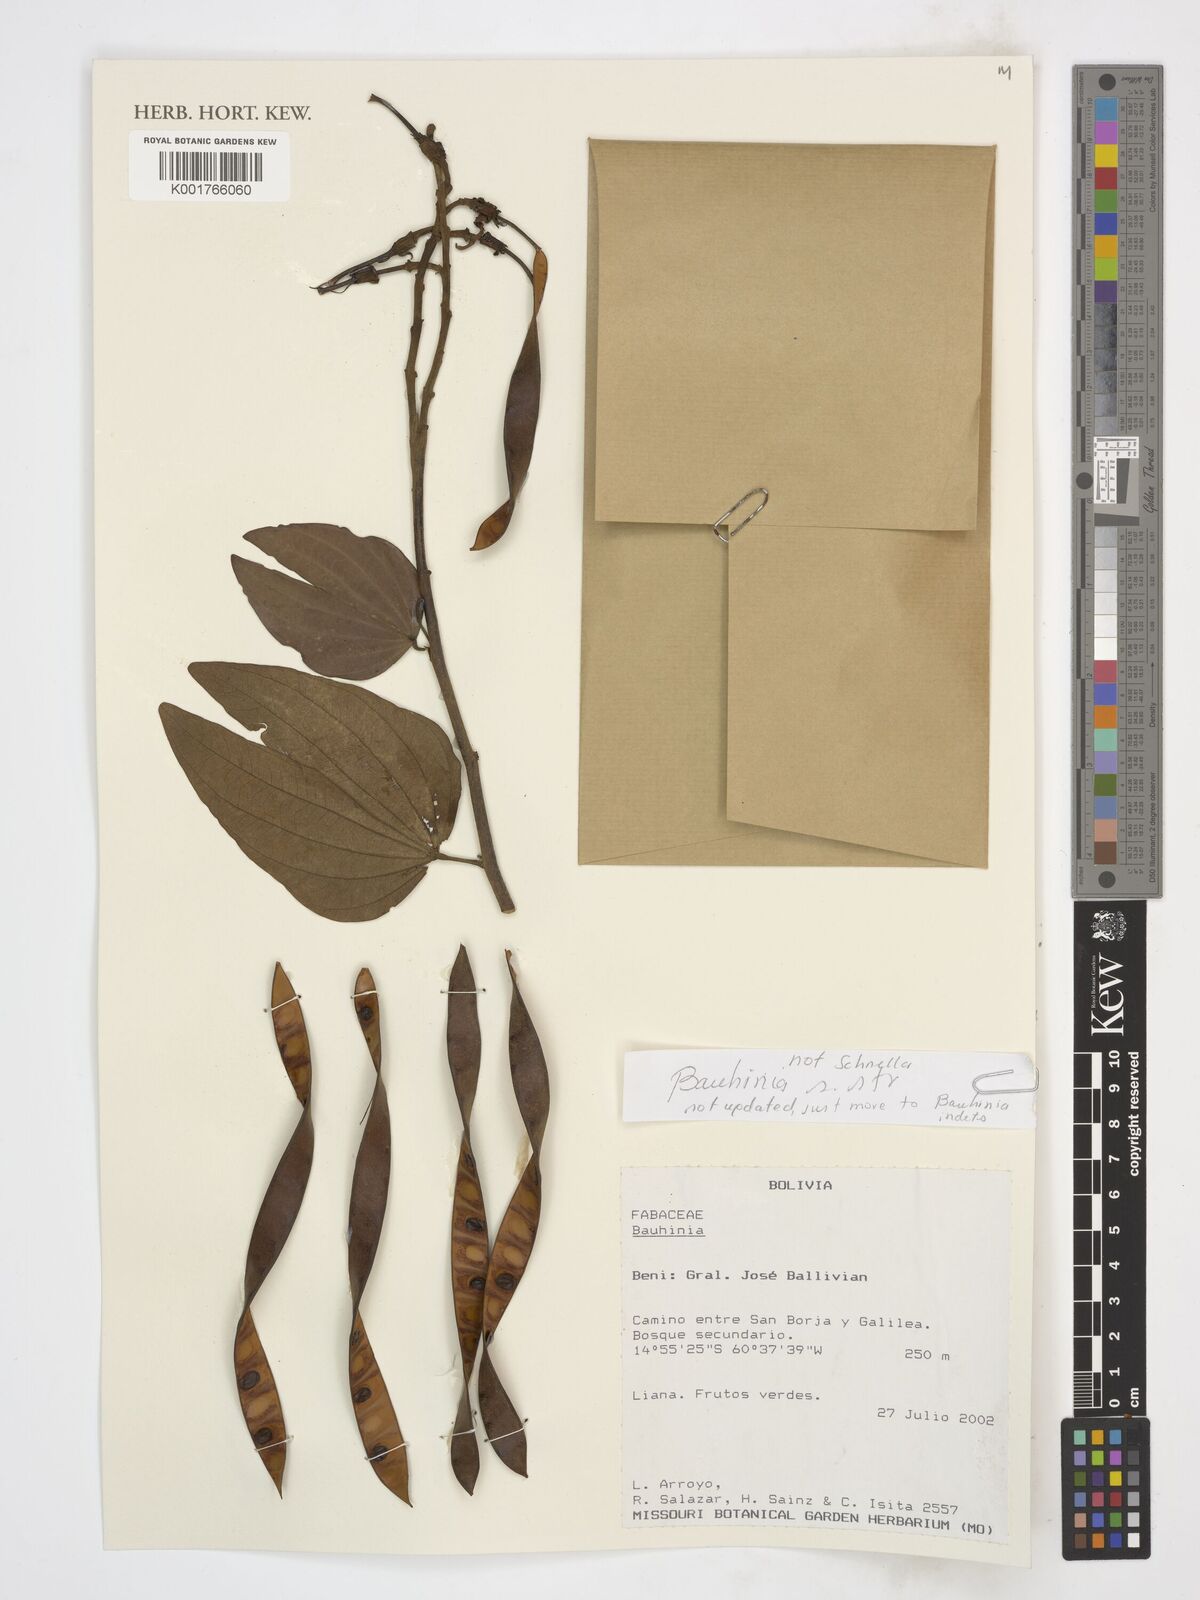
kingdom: Plantae
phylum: Tracheophyta
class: Magnoliopsida
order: Fabales
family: Fabaceae
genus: Bauhinia
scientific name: Bauhinia
